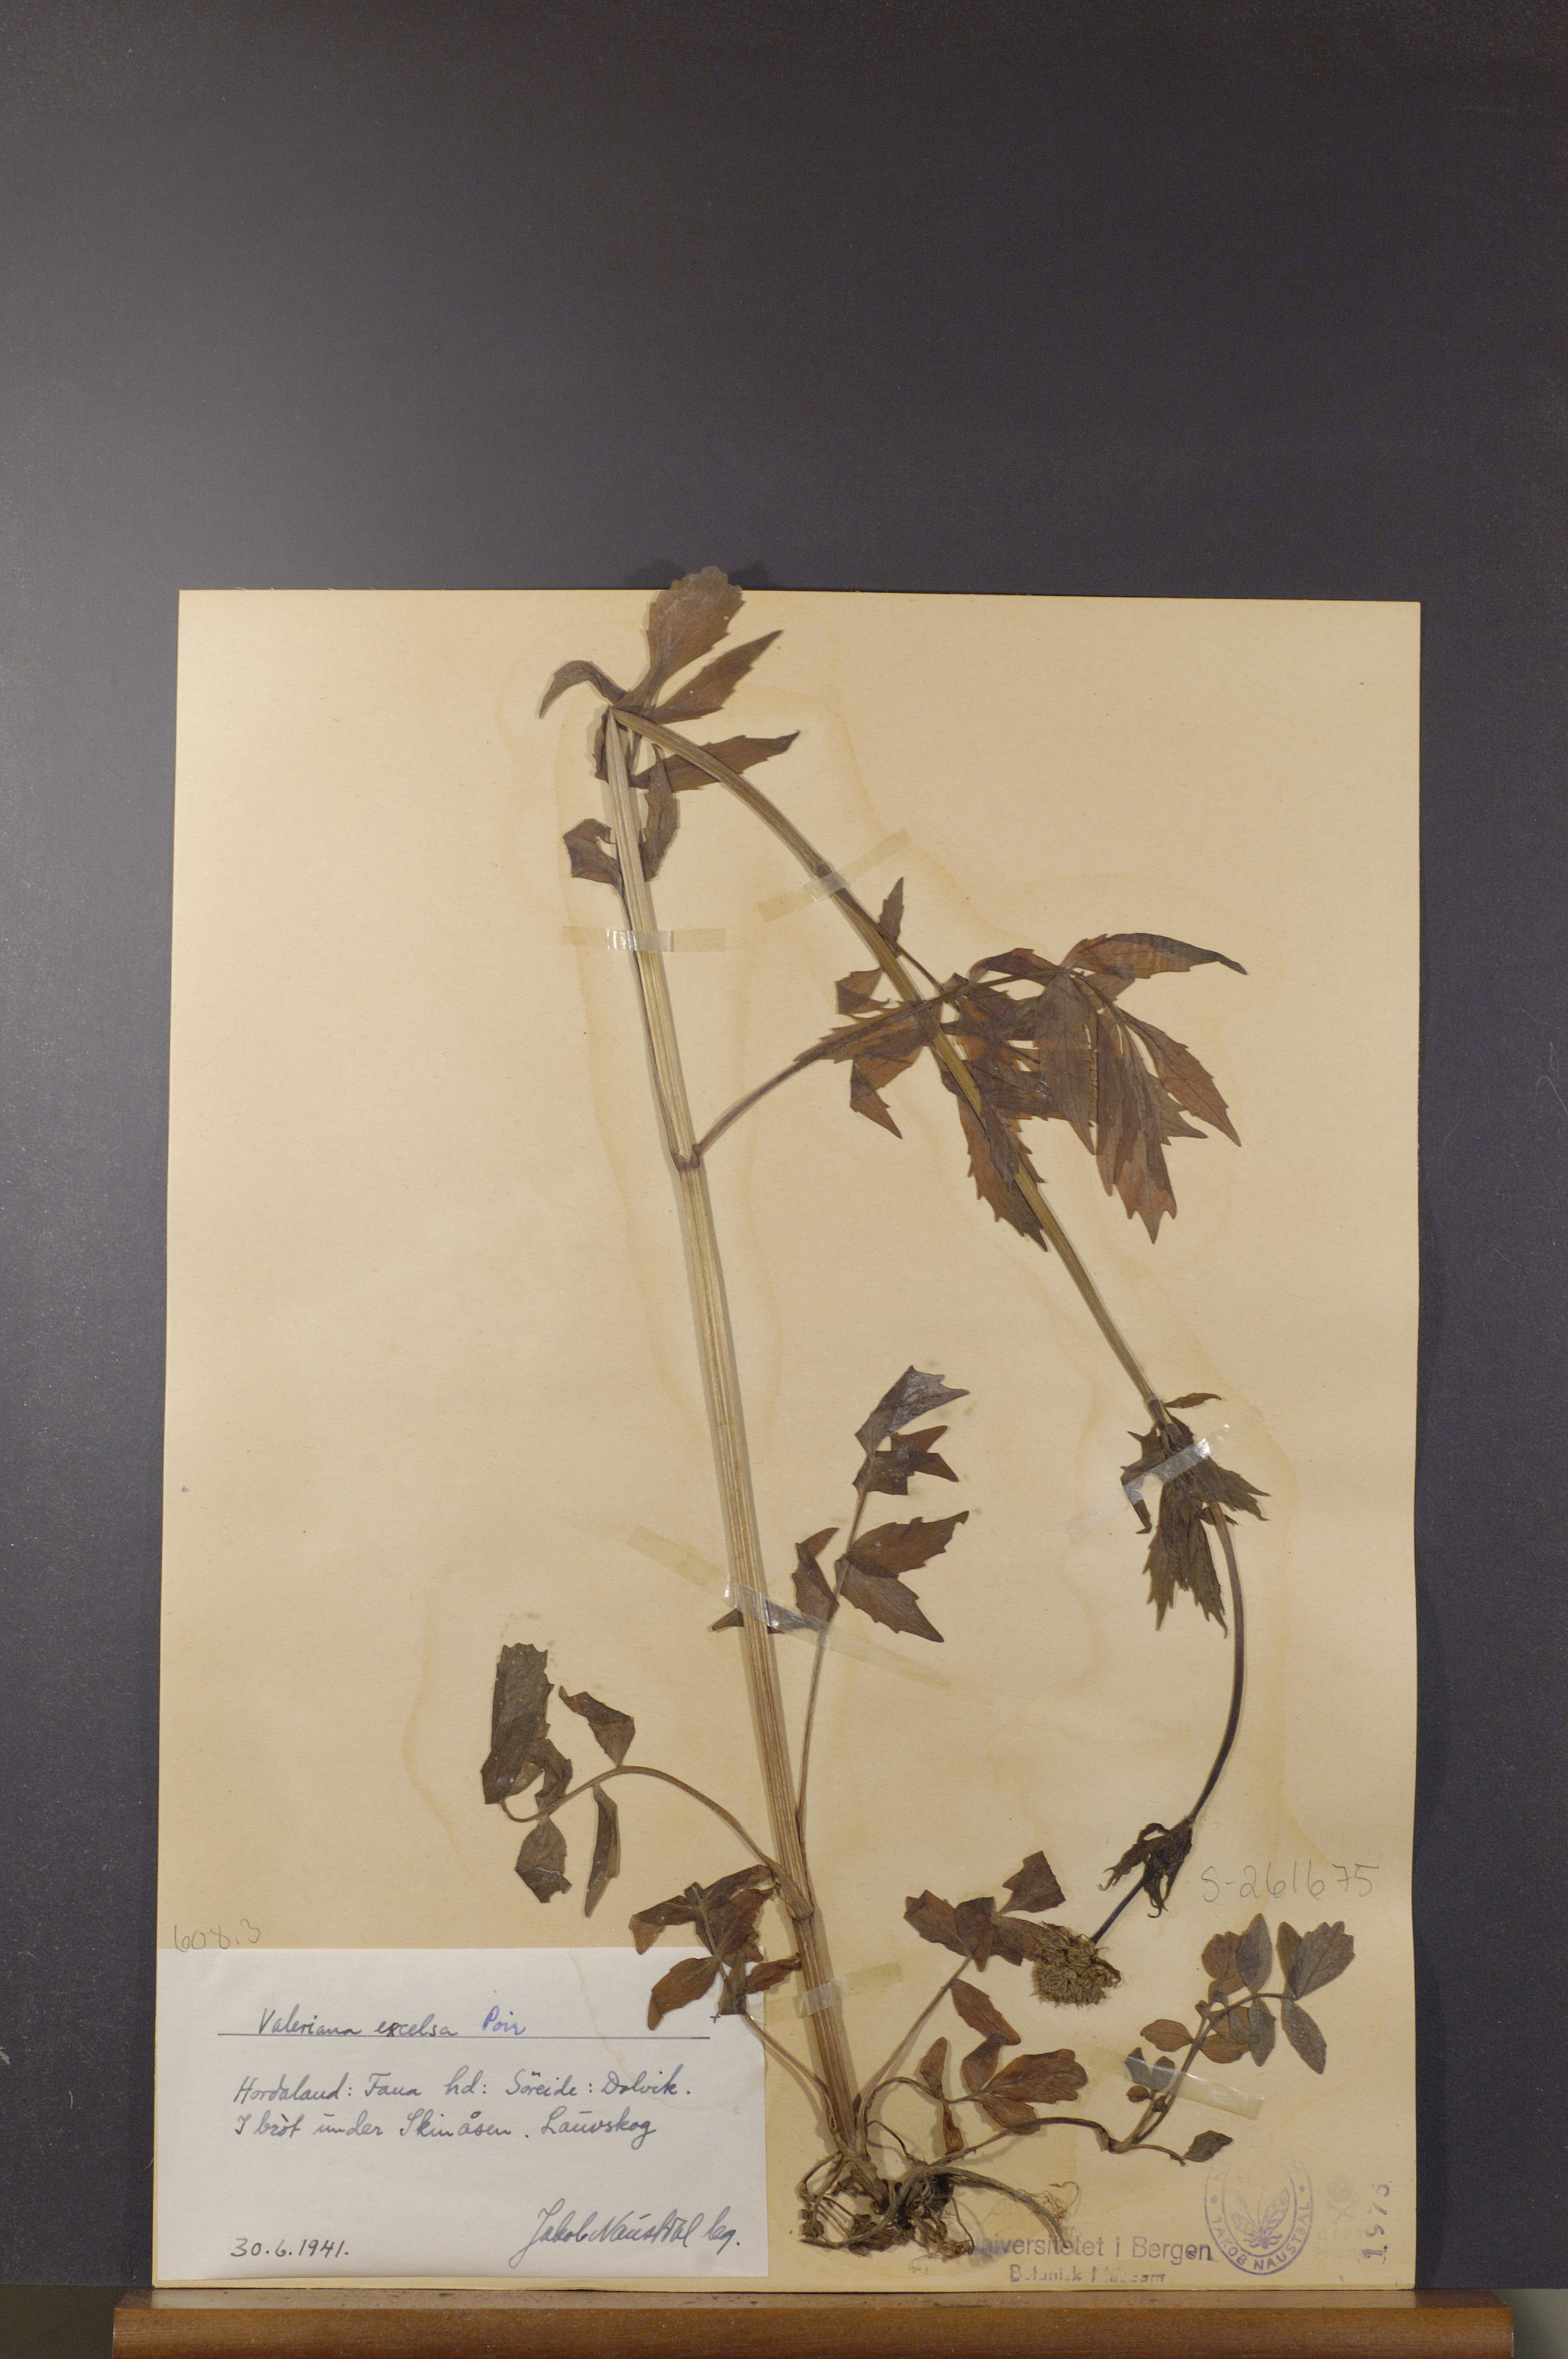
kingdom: Plantae
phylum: Tracheophyta
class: Magnoliopsida
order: Dipsacales
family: Caprifoliaceae
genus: Valeriana
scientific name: Valeriana sambucifolia
